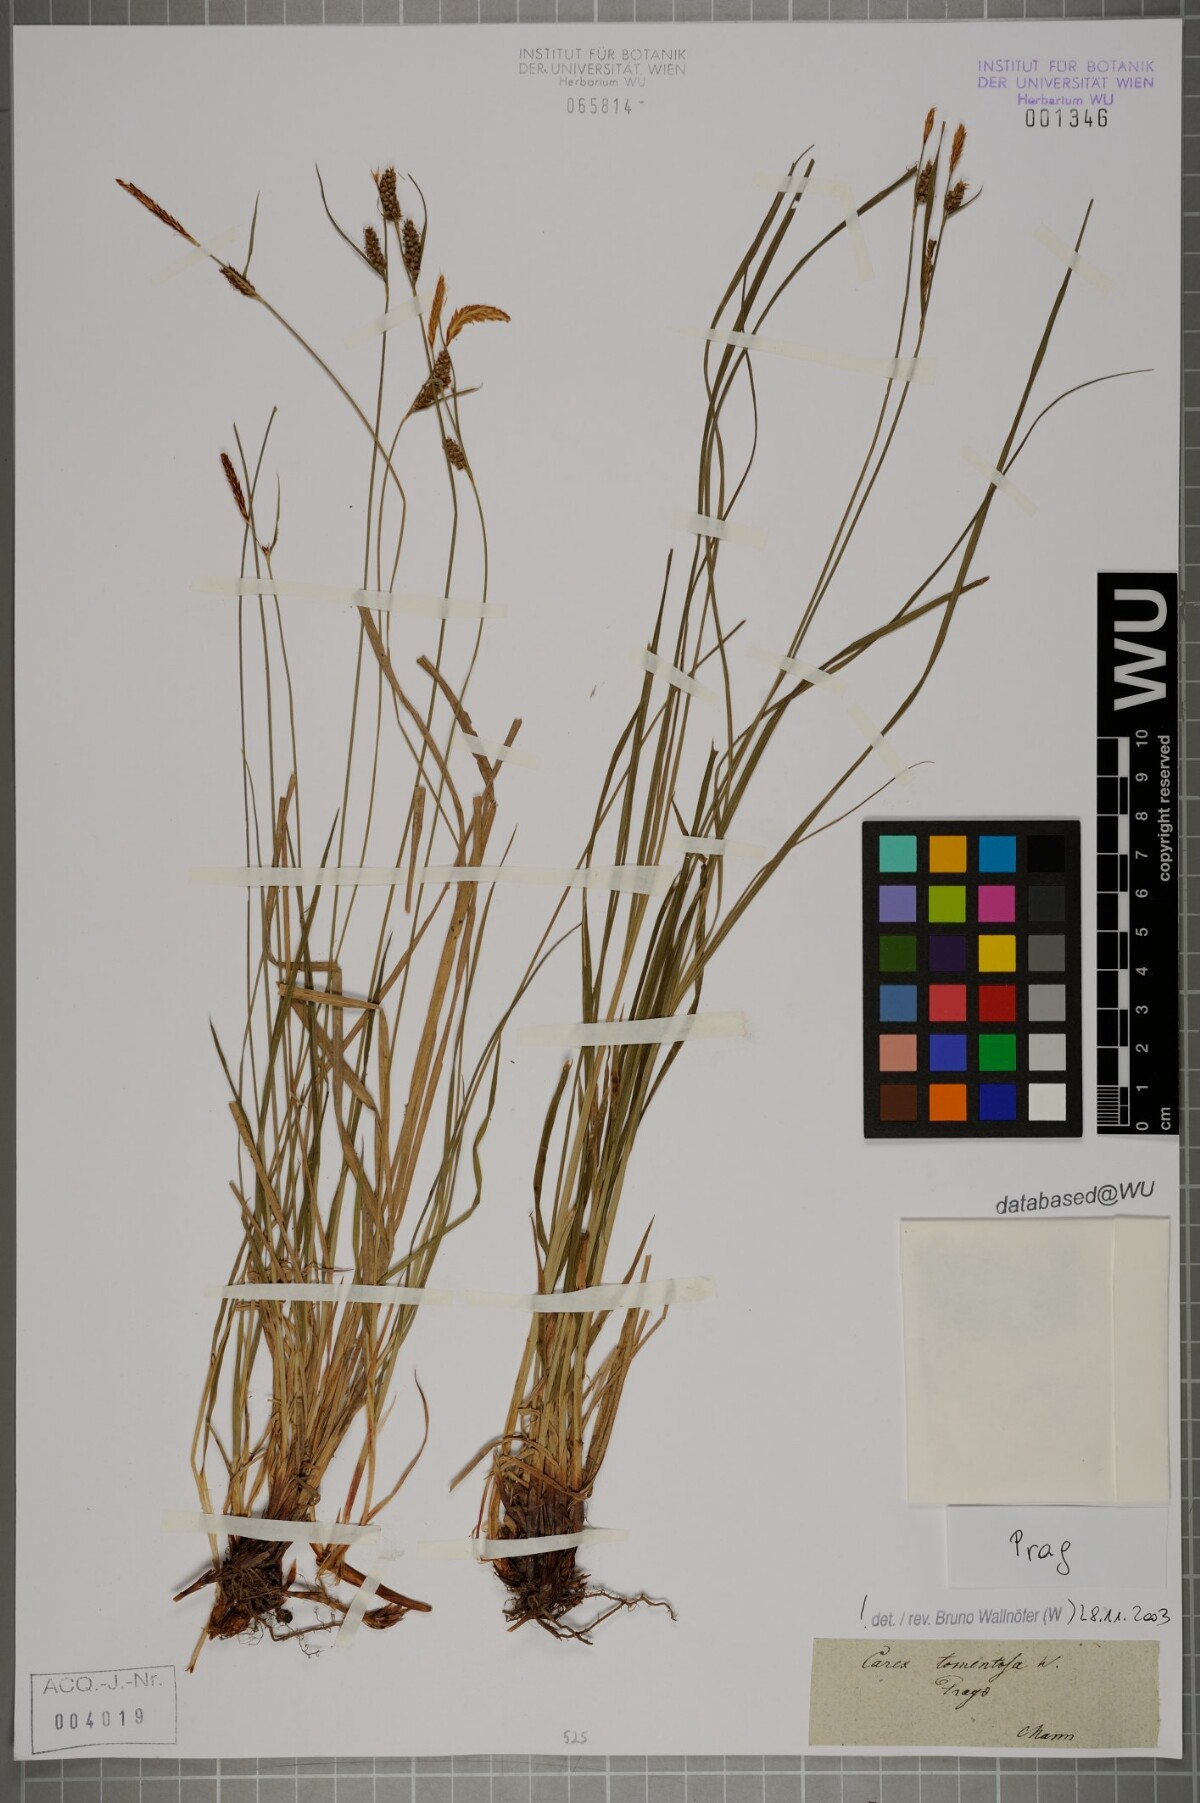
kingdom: Plantae
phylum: Tracheophyta
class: Liliopsida
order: Poales
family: Cyperaceae
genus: Carex
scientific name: Carex tomentosa
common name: Downy-fruited sedge
